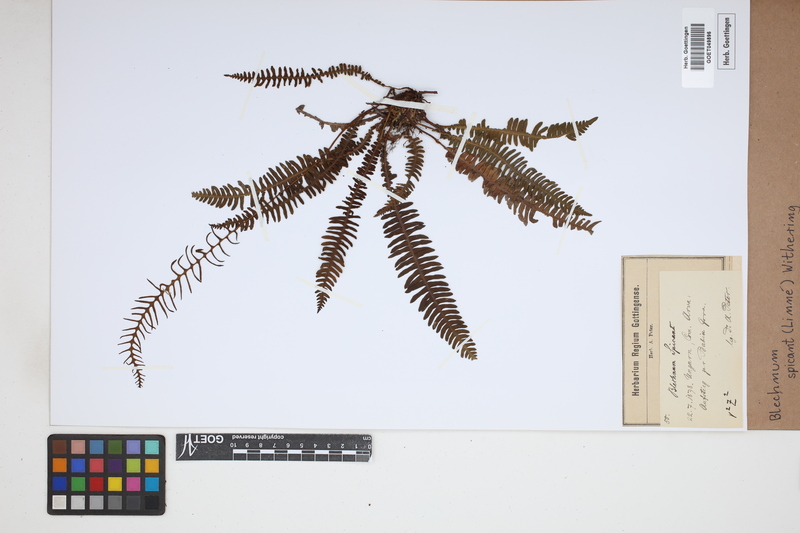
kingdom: Plantae
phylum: Tracheophyta
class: Polypodiopsida
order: Polypodiales
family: Blechnaceae
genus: Struthiopteris
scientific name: Struthiopteris spicant
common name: Deer fern
